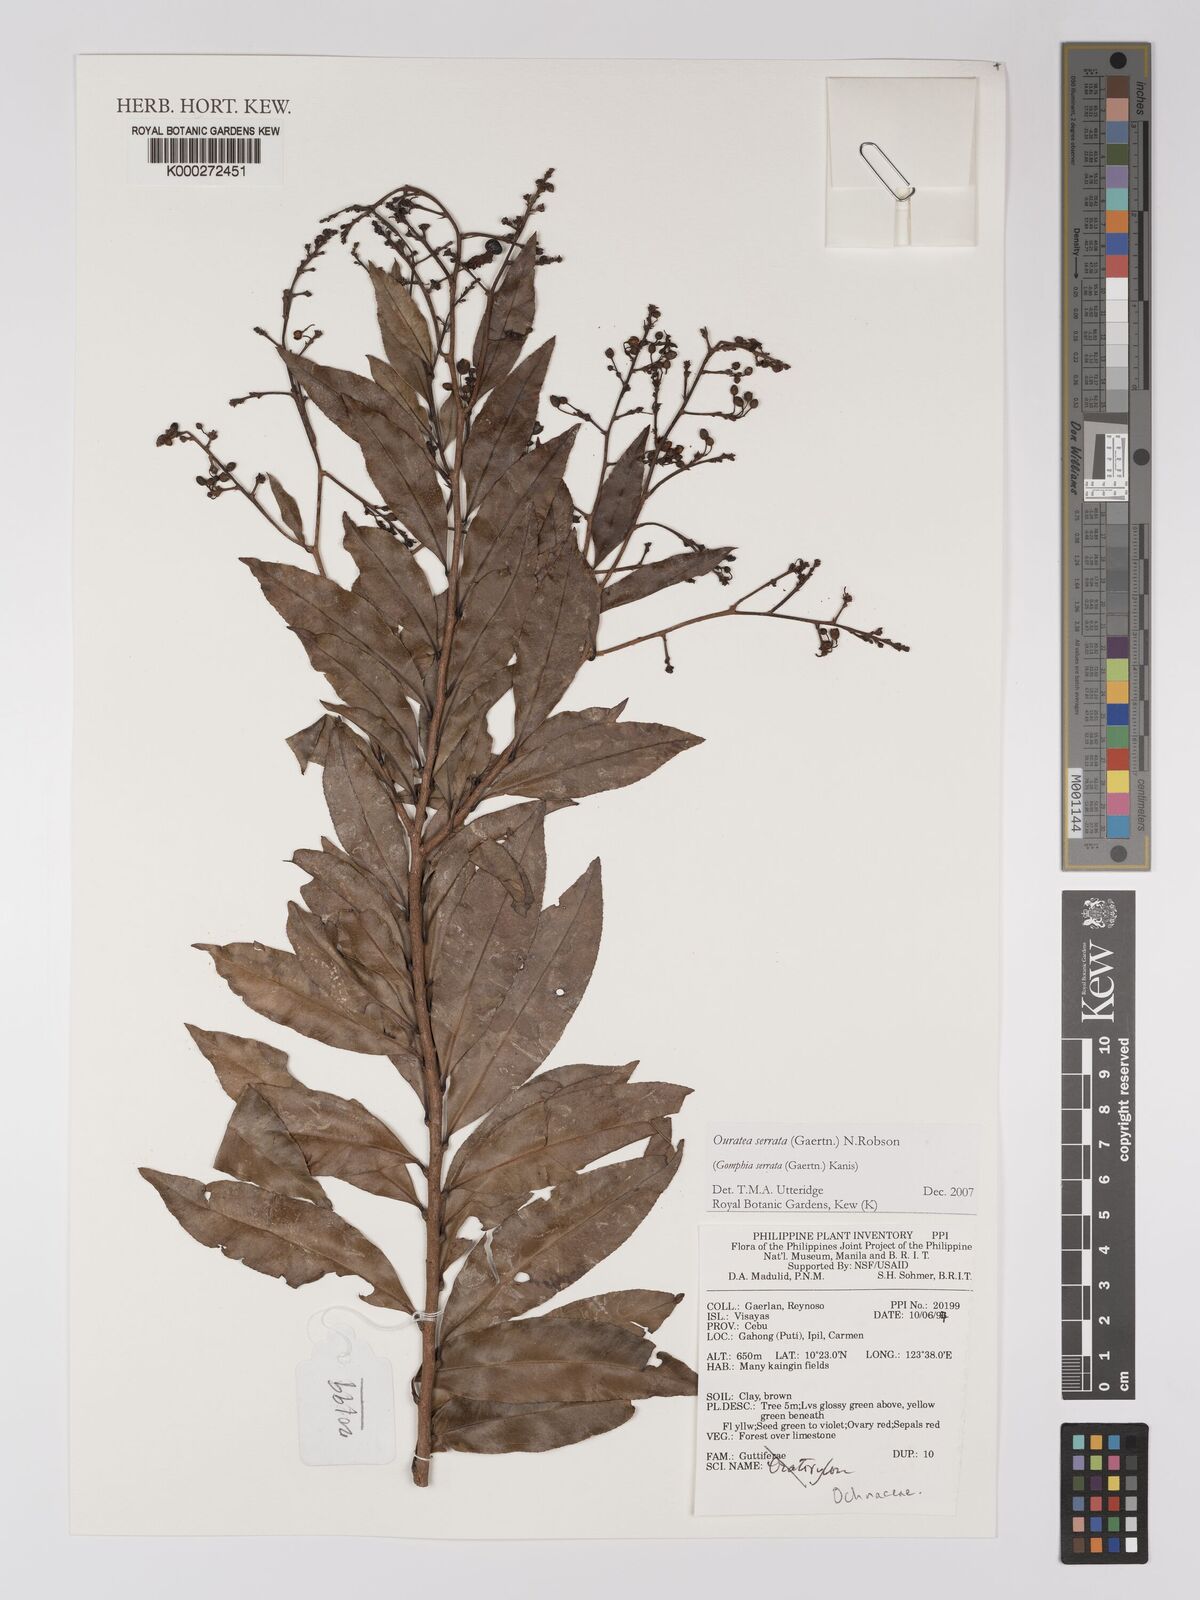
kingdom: Plantae
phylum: Tracheophyta
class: Magnoliopsida
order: Malpighiales
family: Ochnaceae
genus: Gomphia
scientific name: Gomphia serrata
